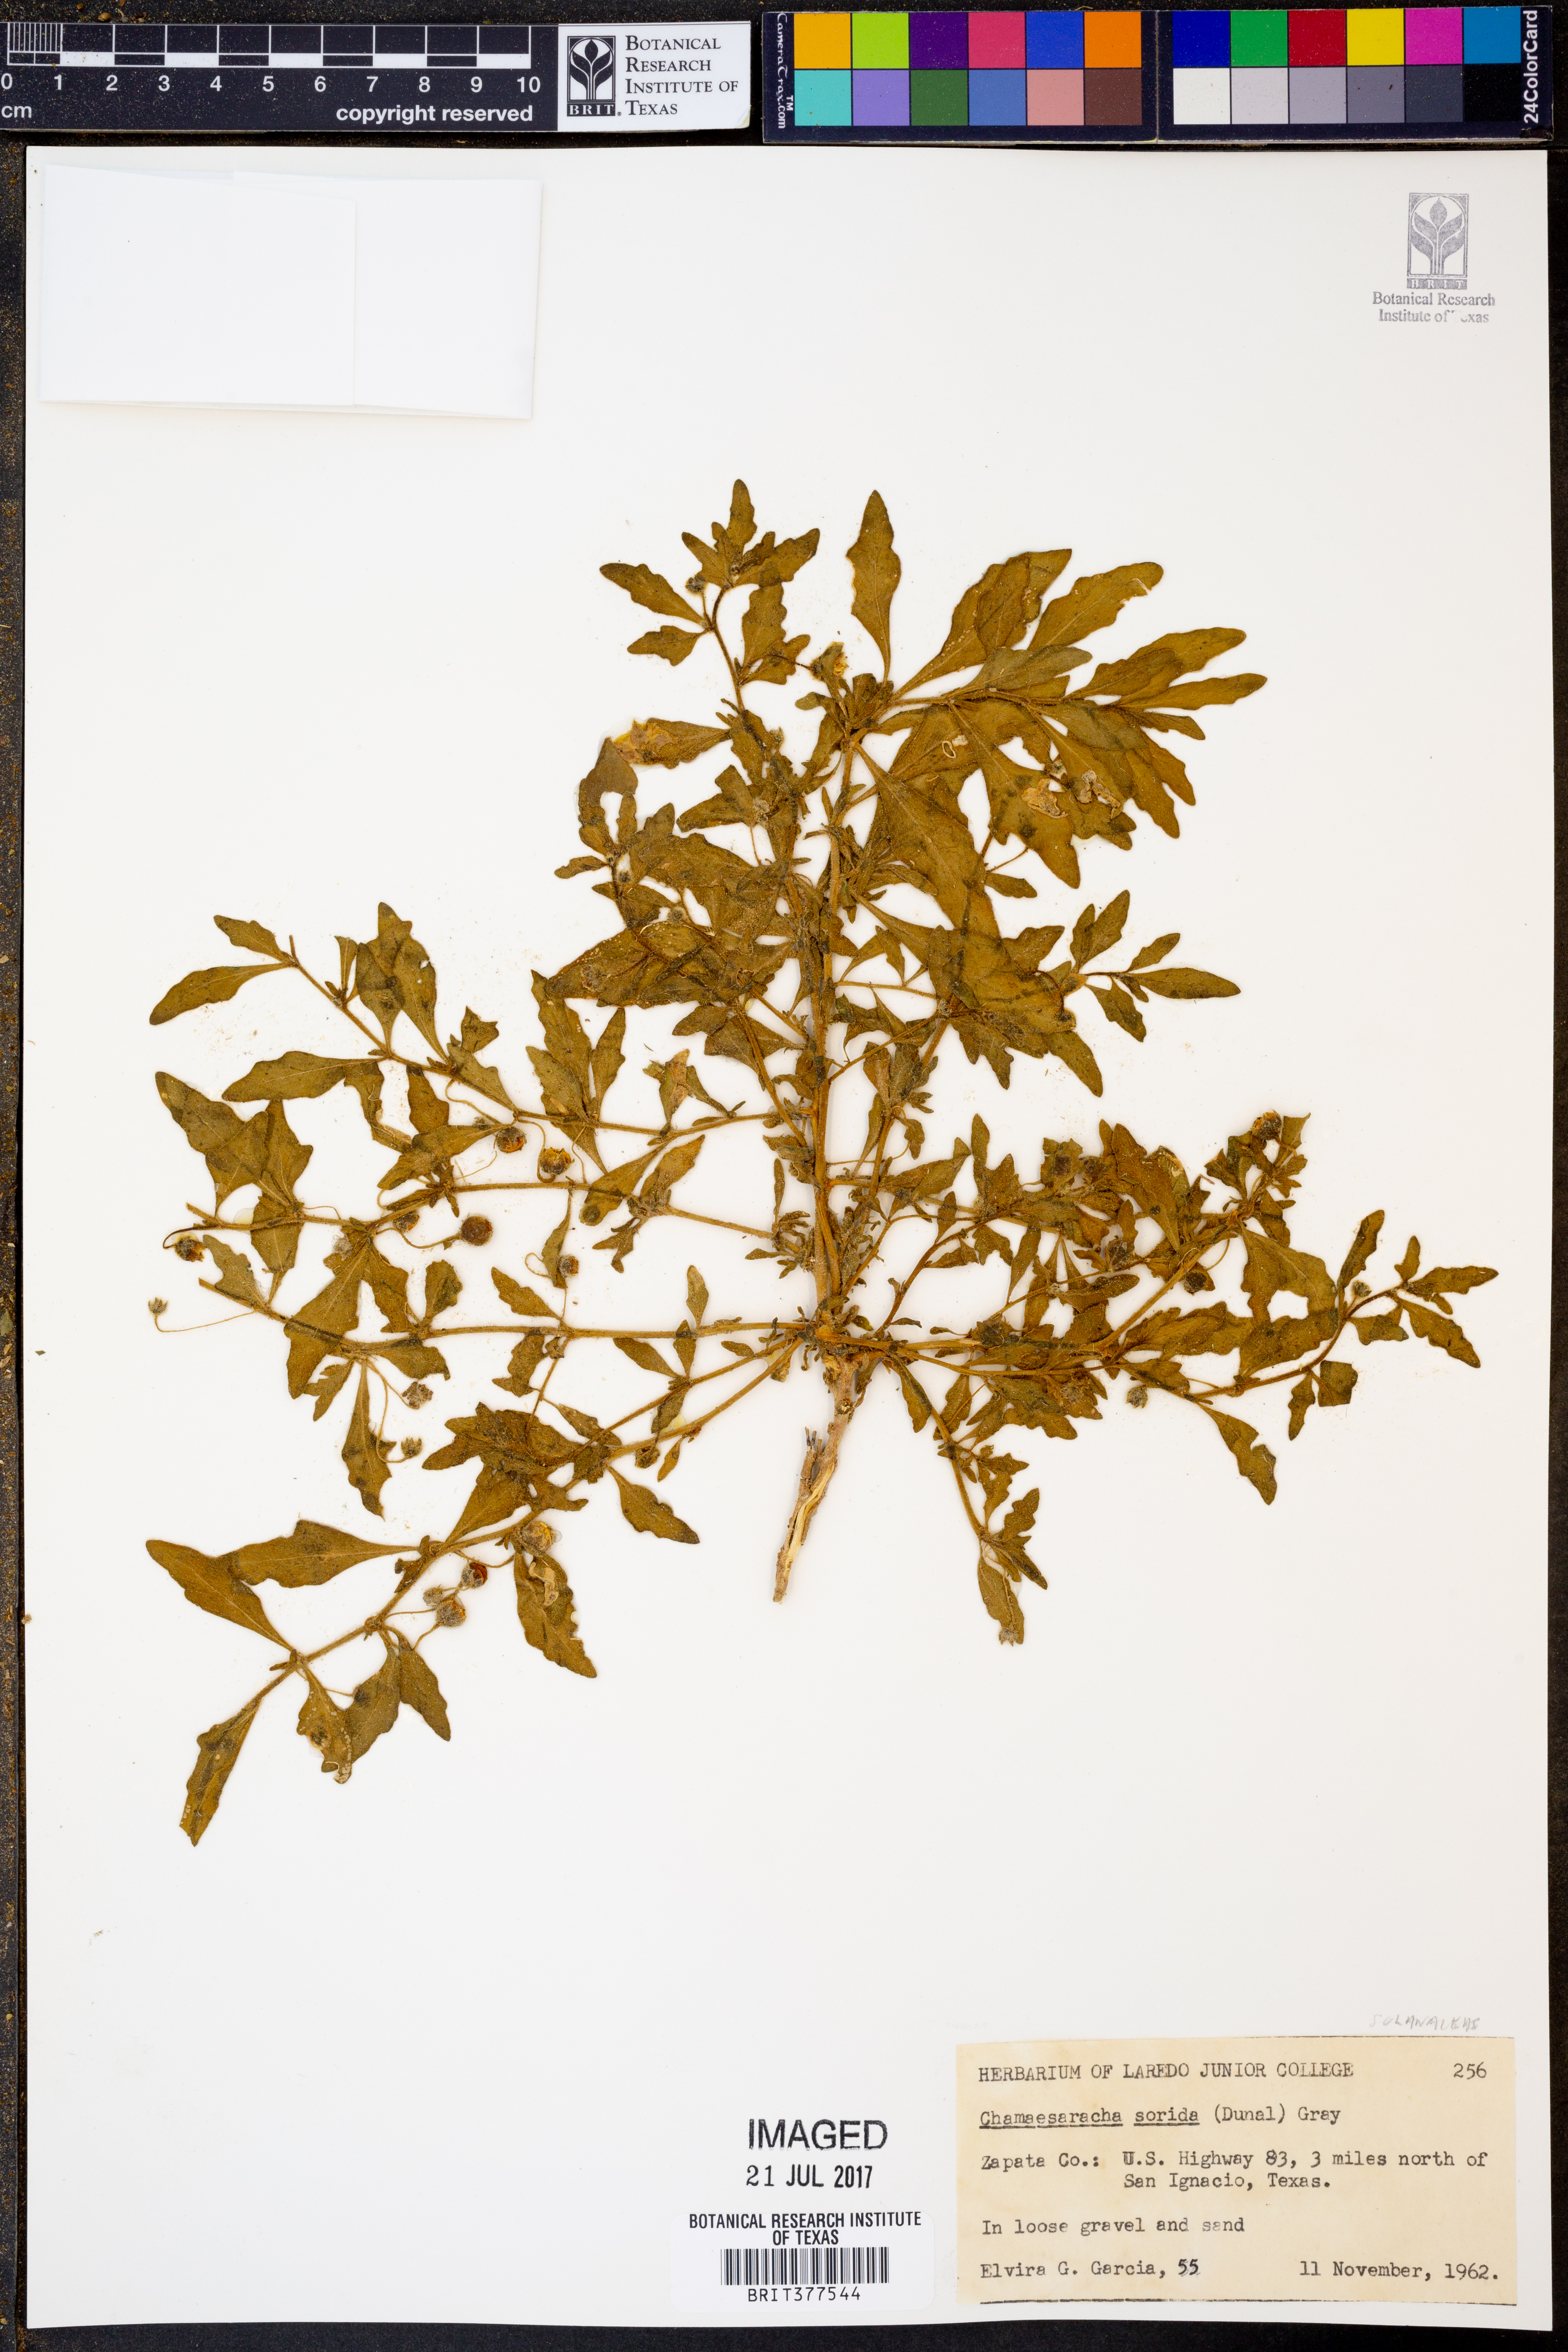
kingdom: Plantae
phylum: Tracheophyta
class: Magnoliopsida
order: Solanales
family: Solanaceae
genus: Chamaesaracha
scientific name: Chamaesaracha sordida
